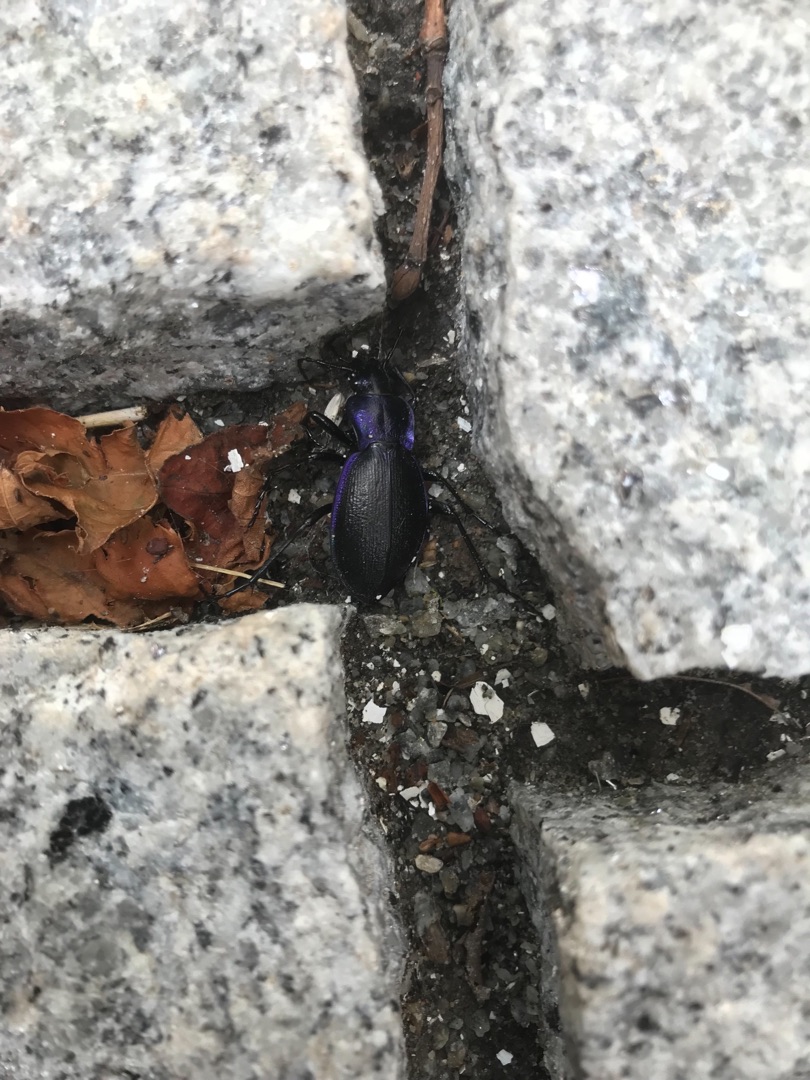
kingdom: Animalia
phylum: Arthropoda
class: Insecta
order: Coleoptera
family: Carabidae
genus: Carabus
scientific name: Carabus problematicus
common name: Jysk løber
